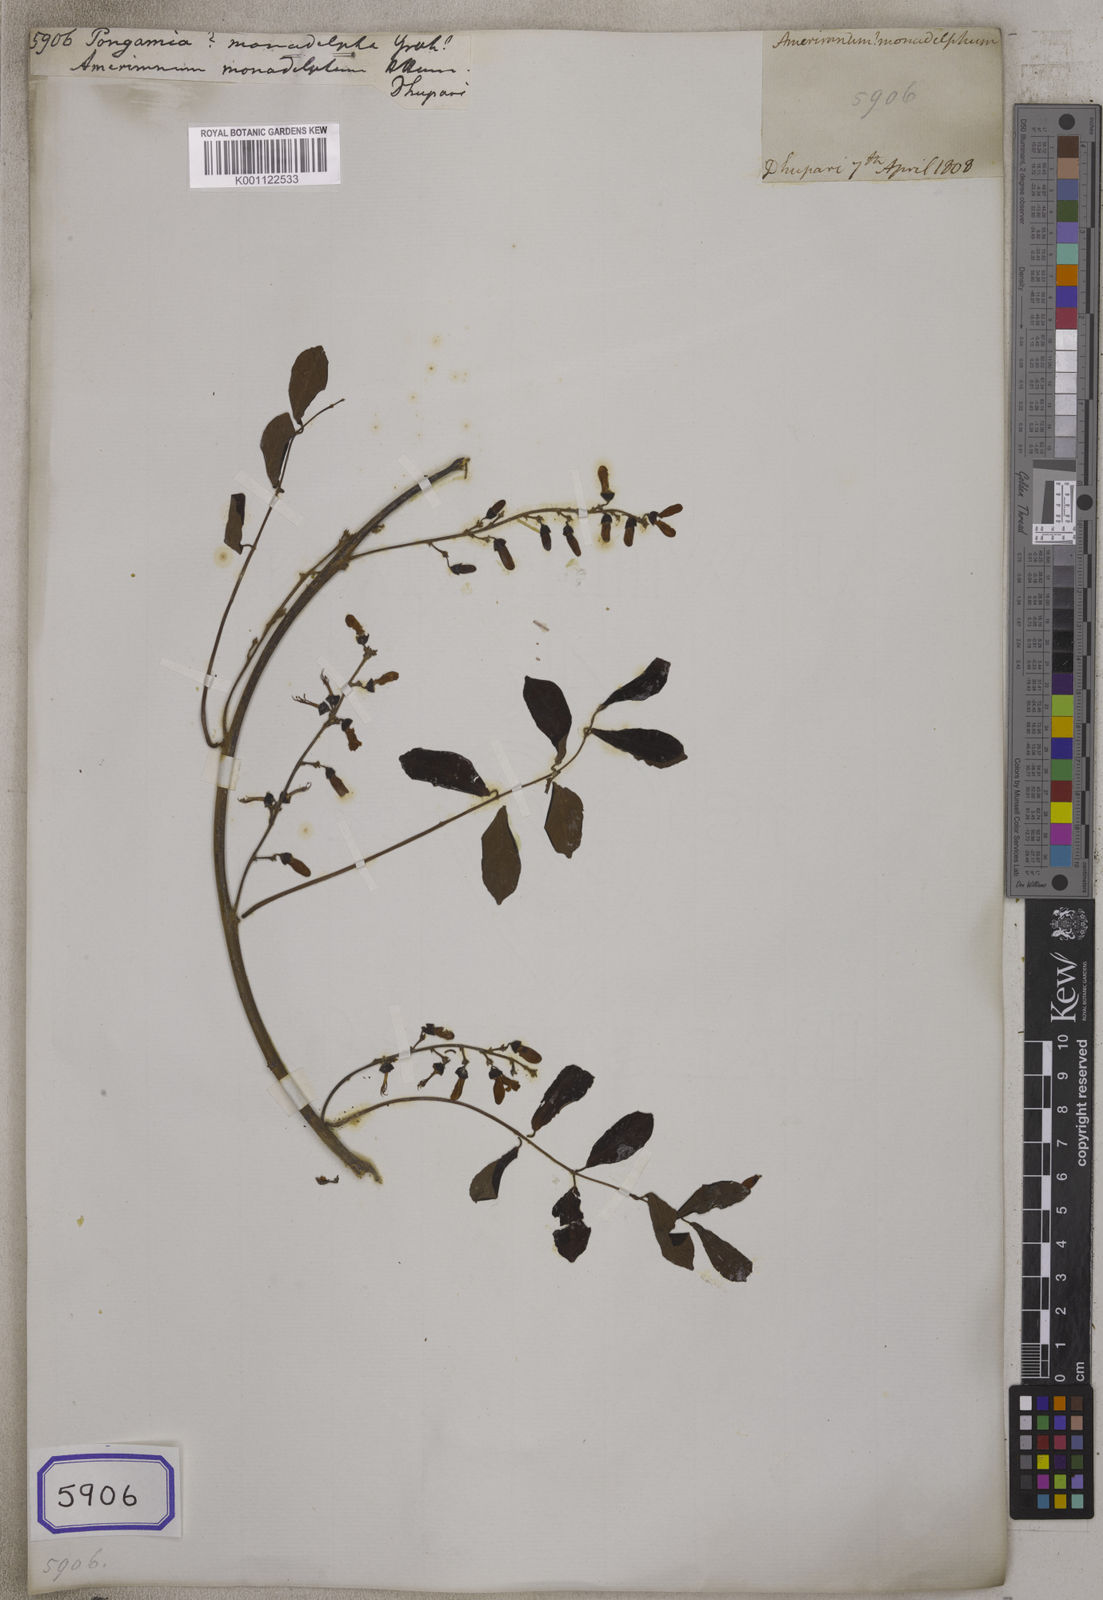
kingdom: Plantae
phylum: Tracheophyta
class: Magnoliopsida
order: Fabales
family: Fabaceae
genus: Derris
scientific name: Derris cuneifolia
